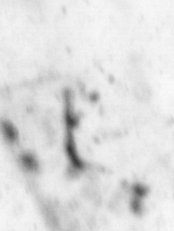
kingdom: Animalia
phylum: Chordata
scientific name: Chordata
